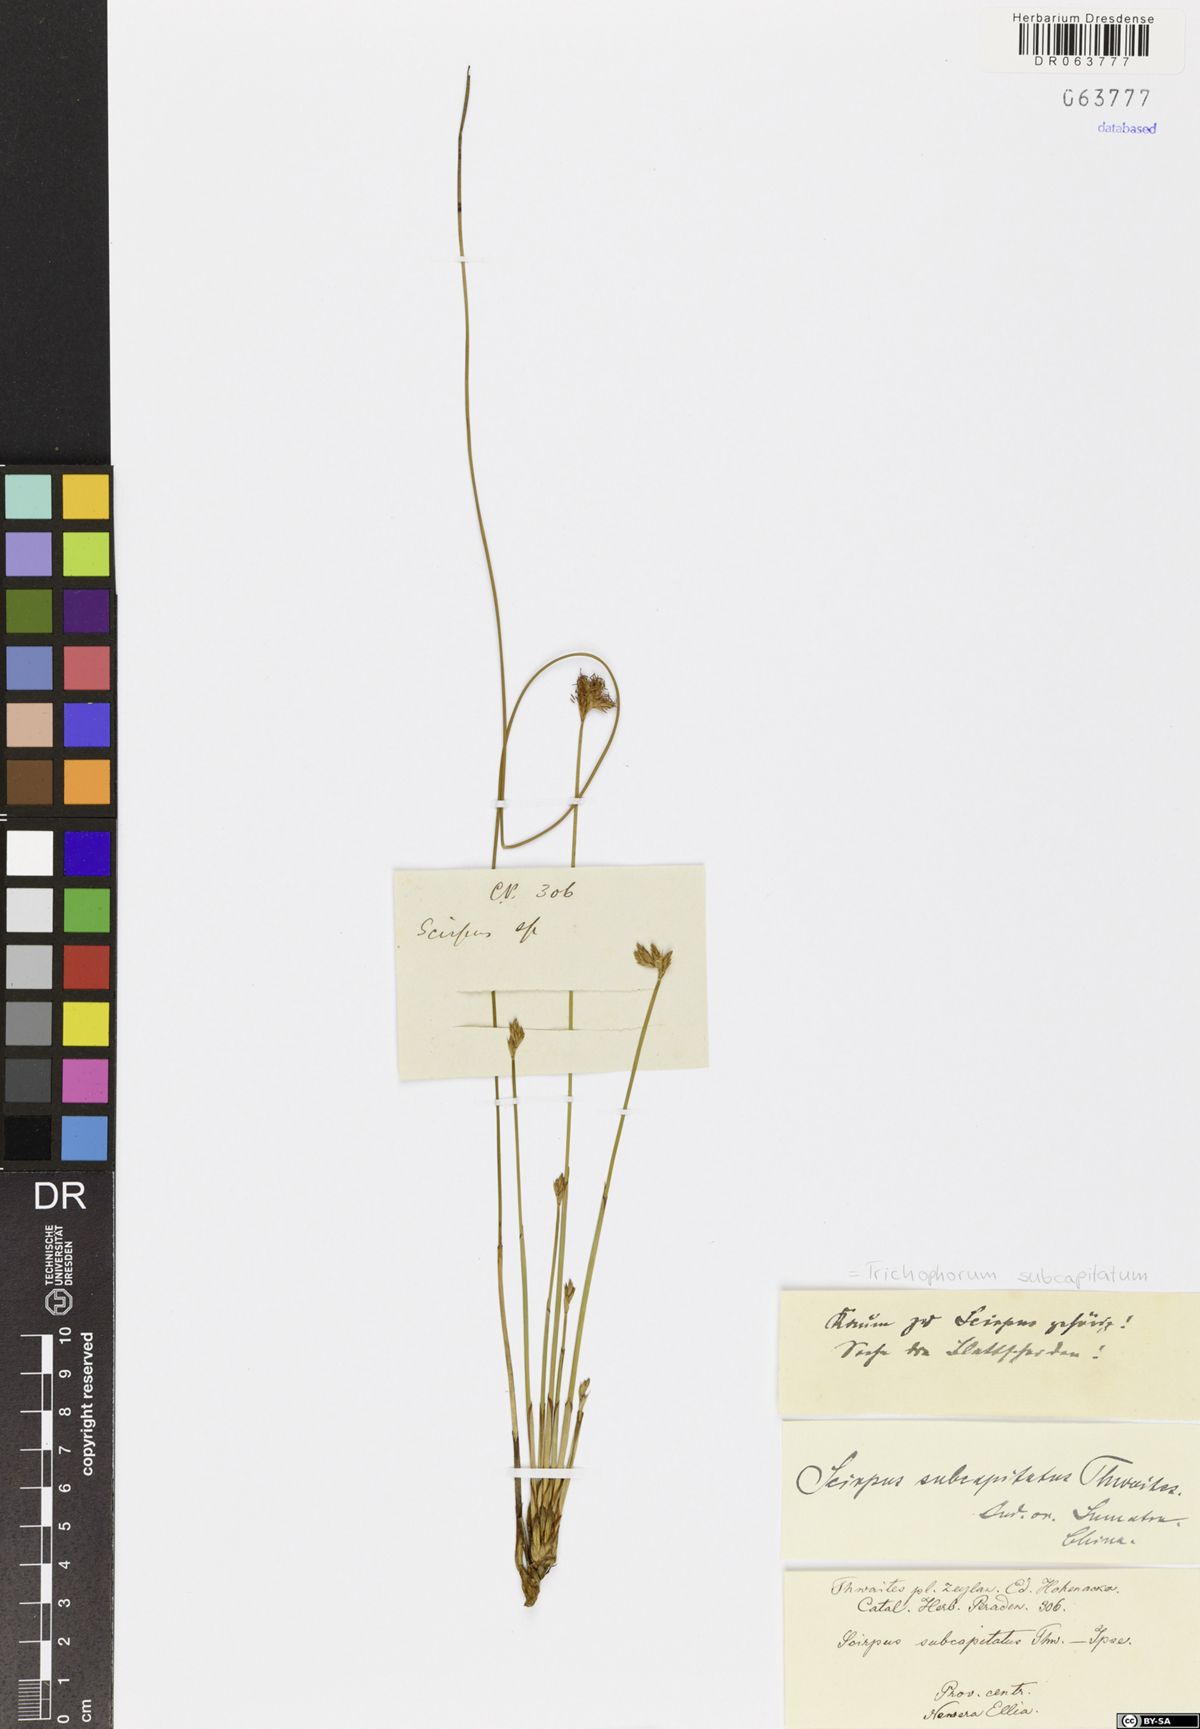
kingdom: Plantae
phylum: Tracheophyta
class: Liliopsida
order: Poales
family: Cyperaceae
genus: Trichophorum
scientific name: Trichophorum subcapitatum
